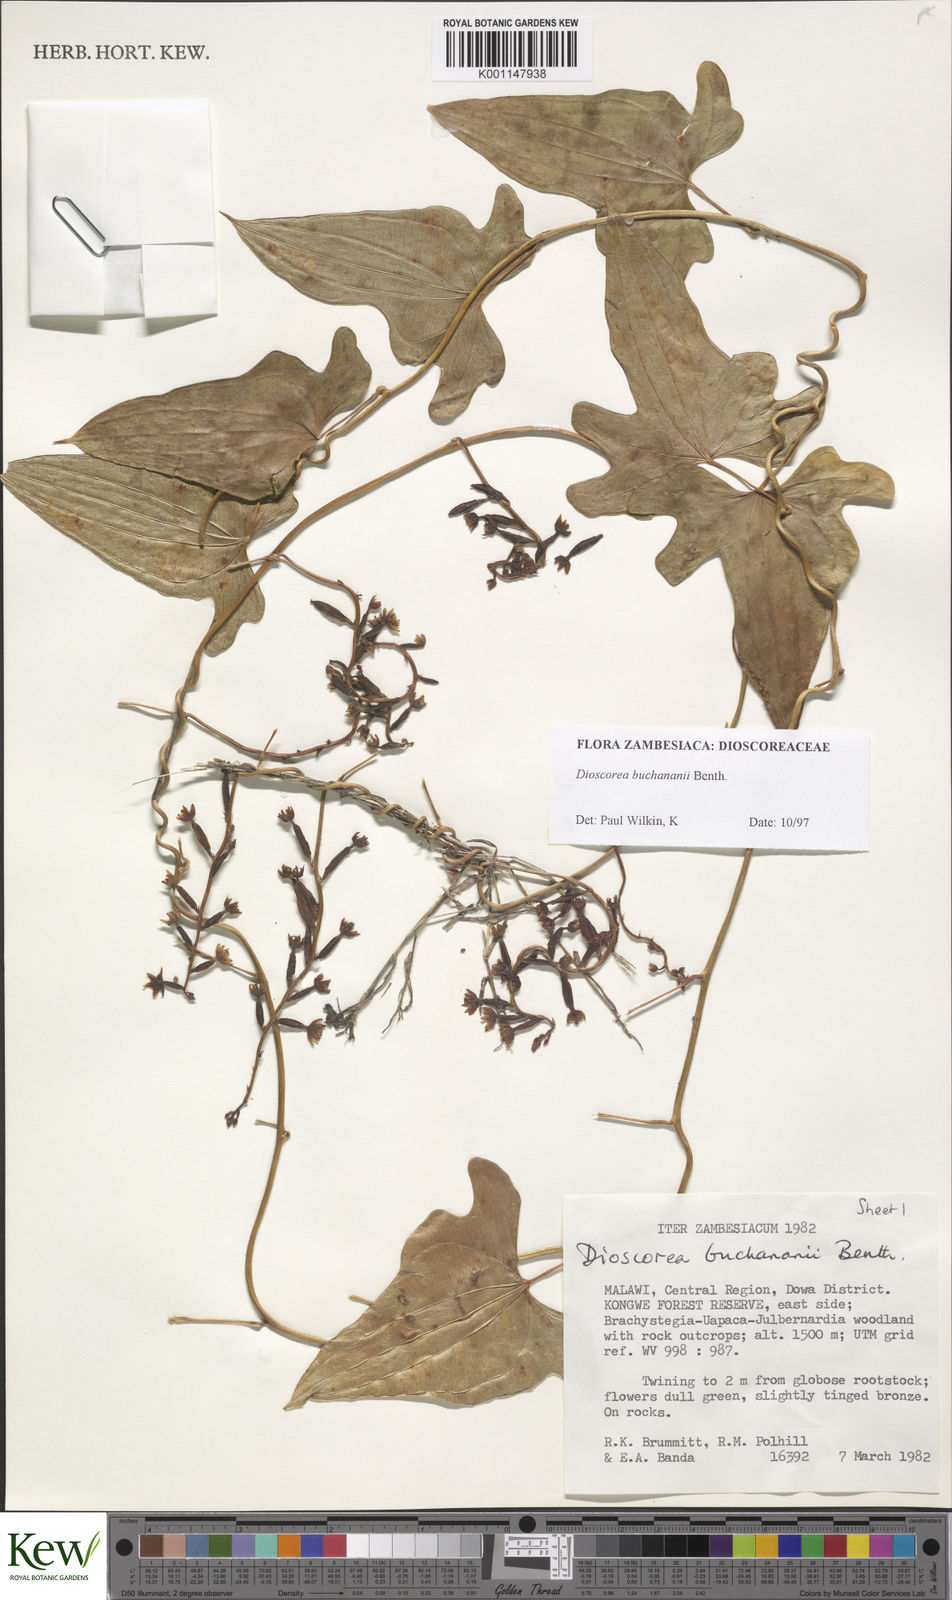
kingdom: Plantae
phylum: Tracheophyta
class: Liliopsida
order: Dioscoreales
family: Dioscoreaceae
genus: Dioscorea
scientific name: Dioscorea buchananii
